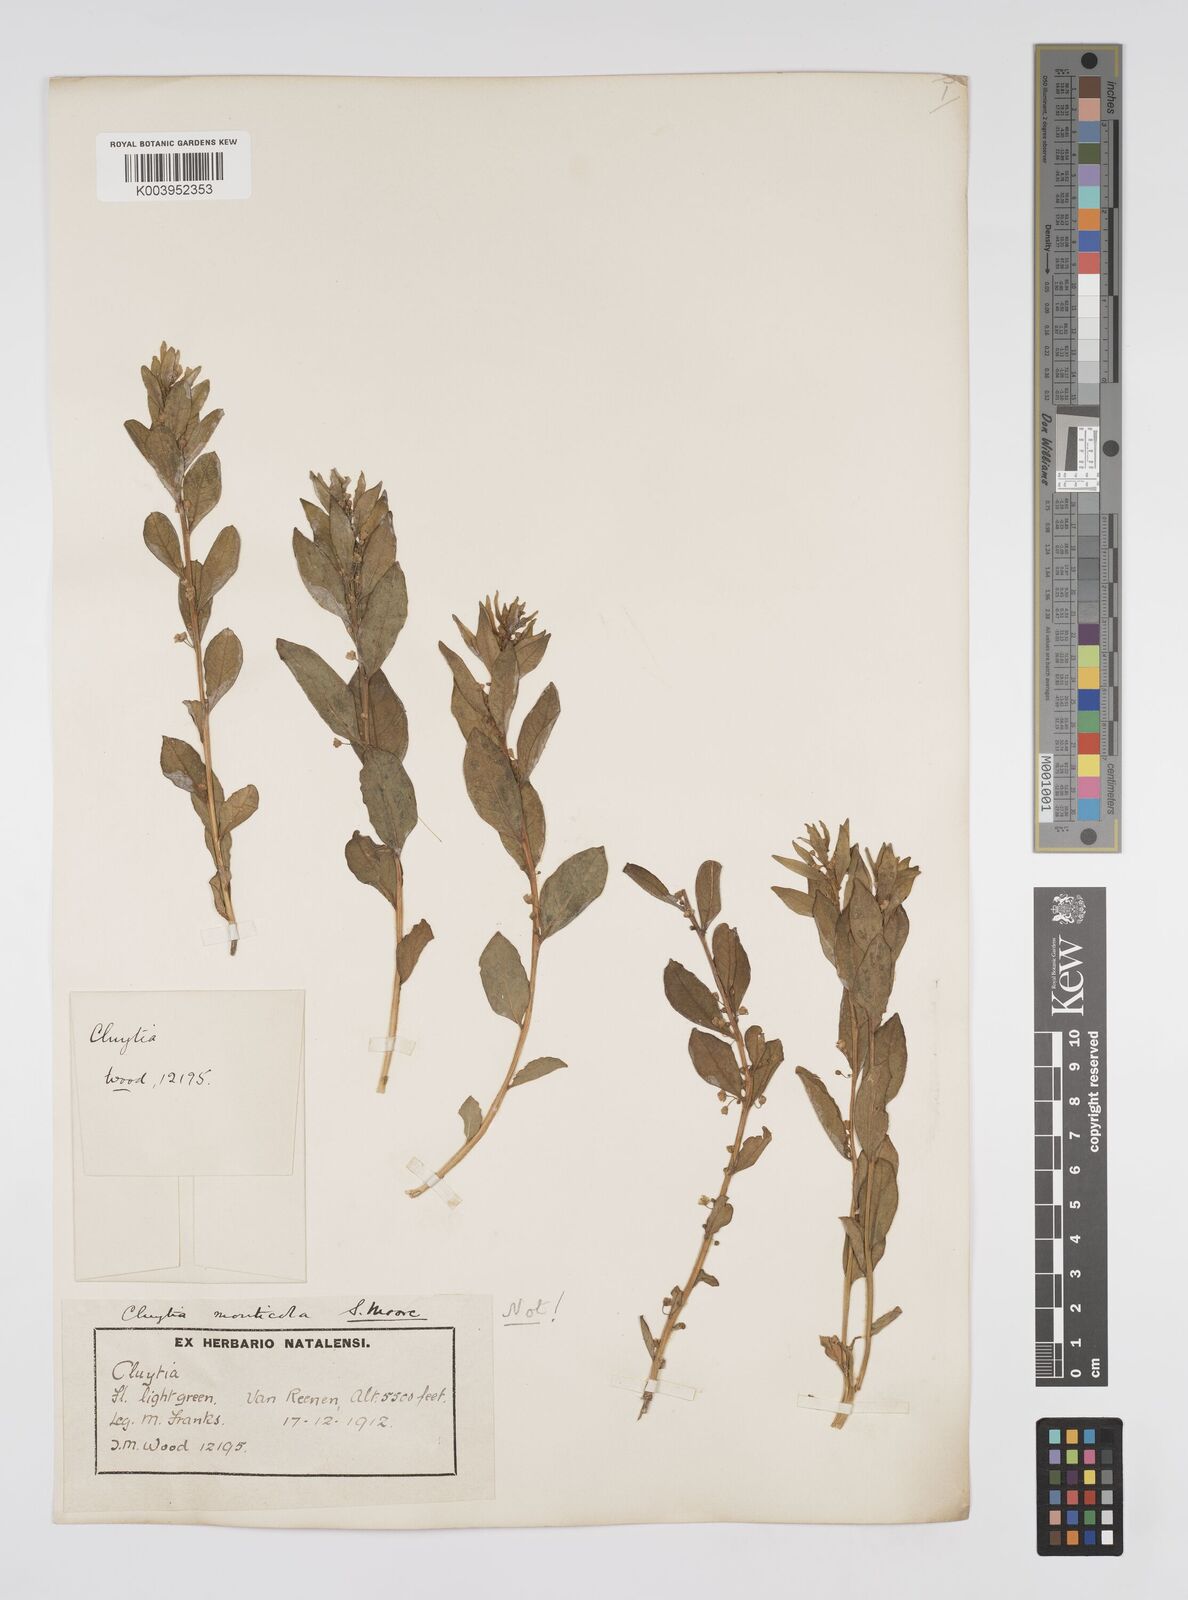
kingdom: Plantae
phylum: Tracheophyta
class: Magnoliopsida
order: Malpighiales
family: Peraceae
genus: Clutia
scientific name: Clutia monticola
